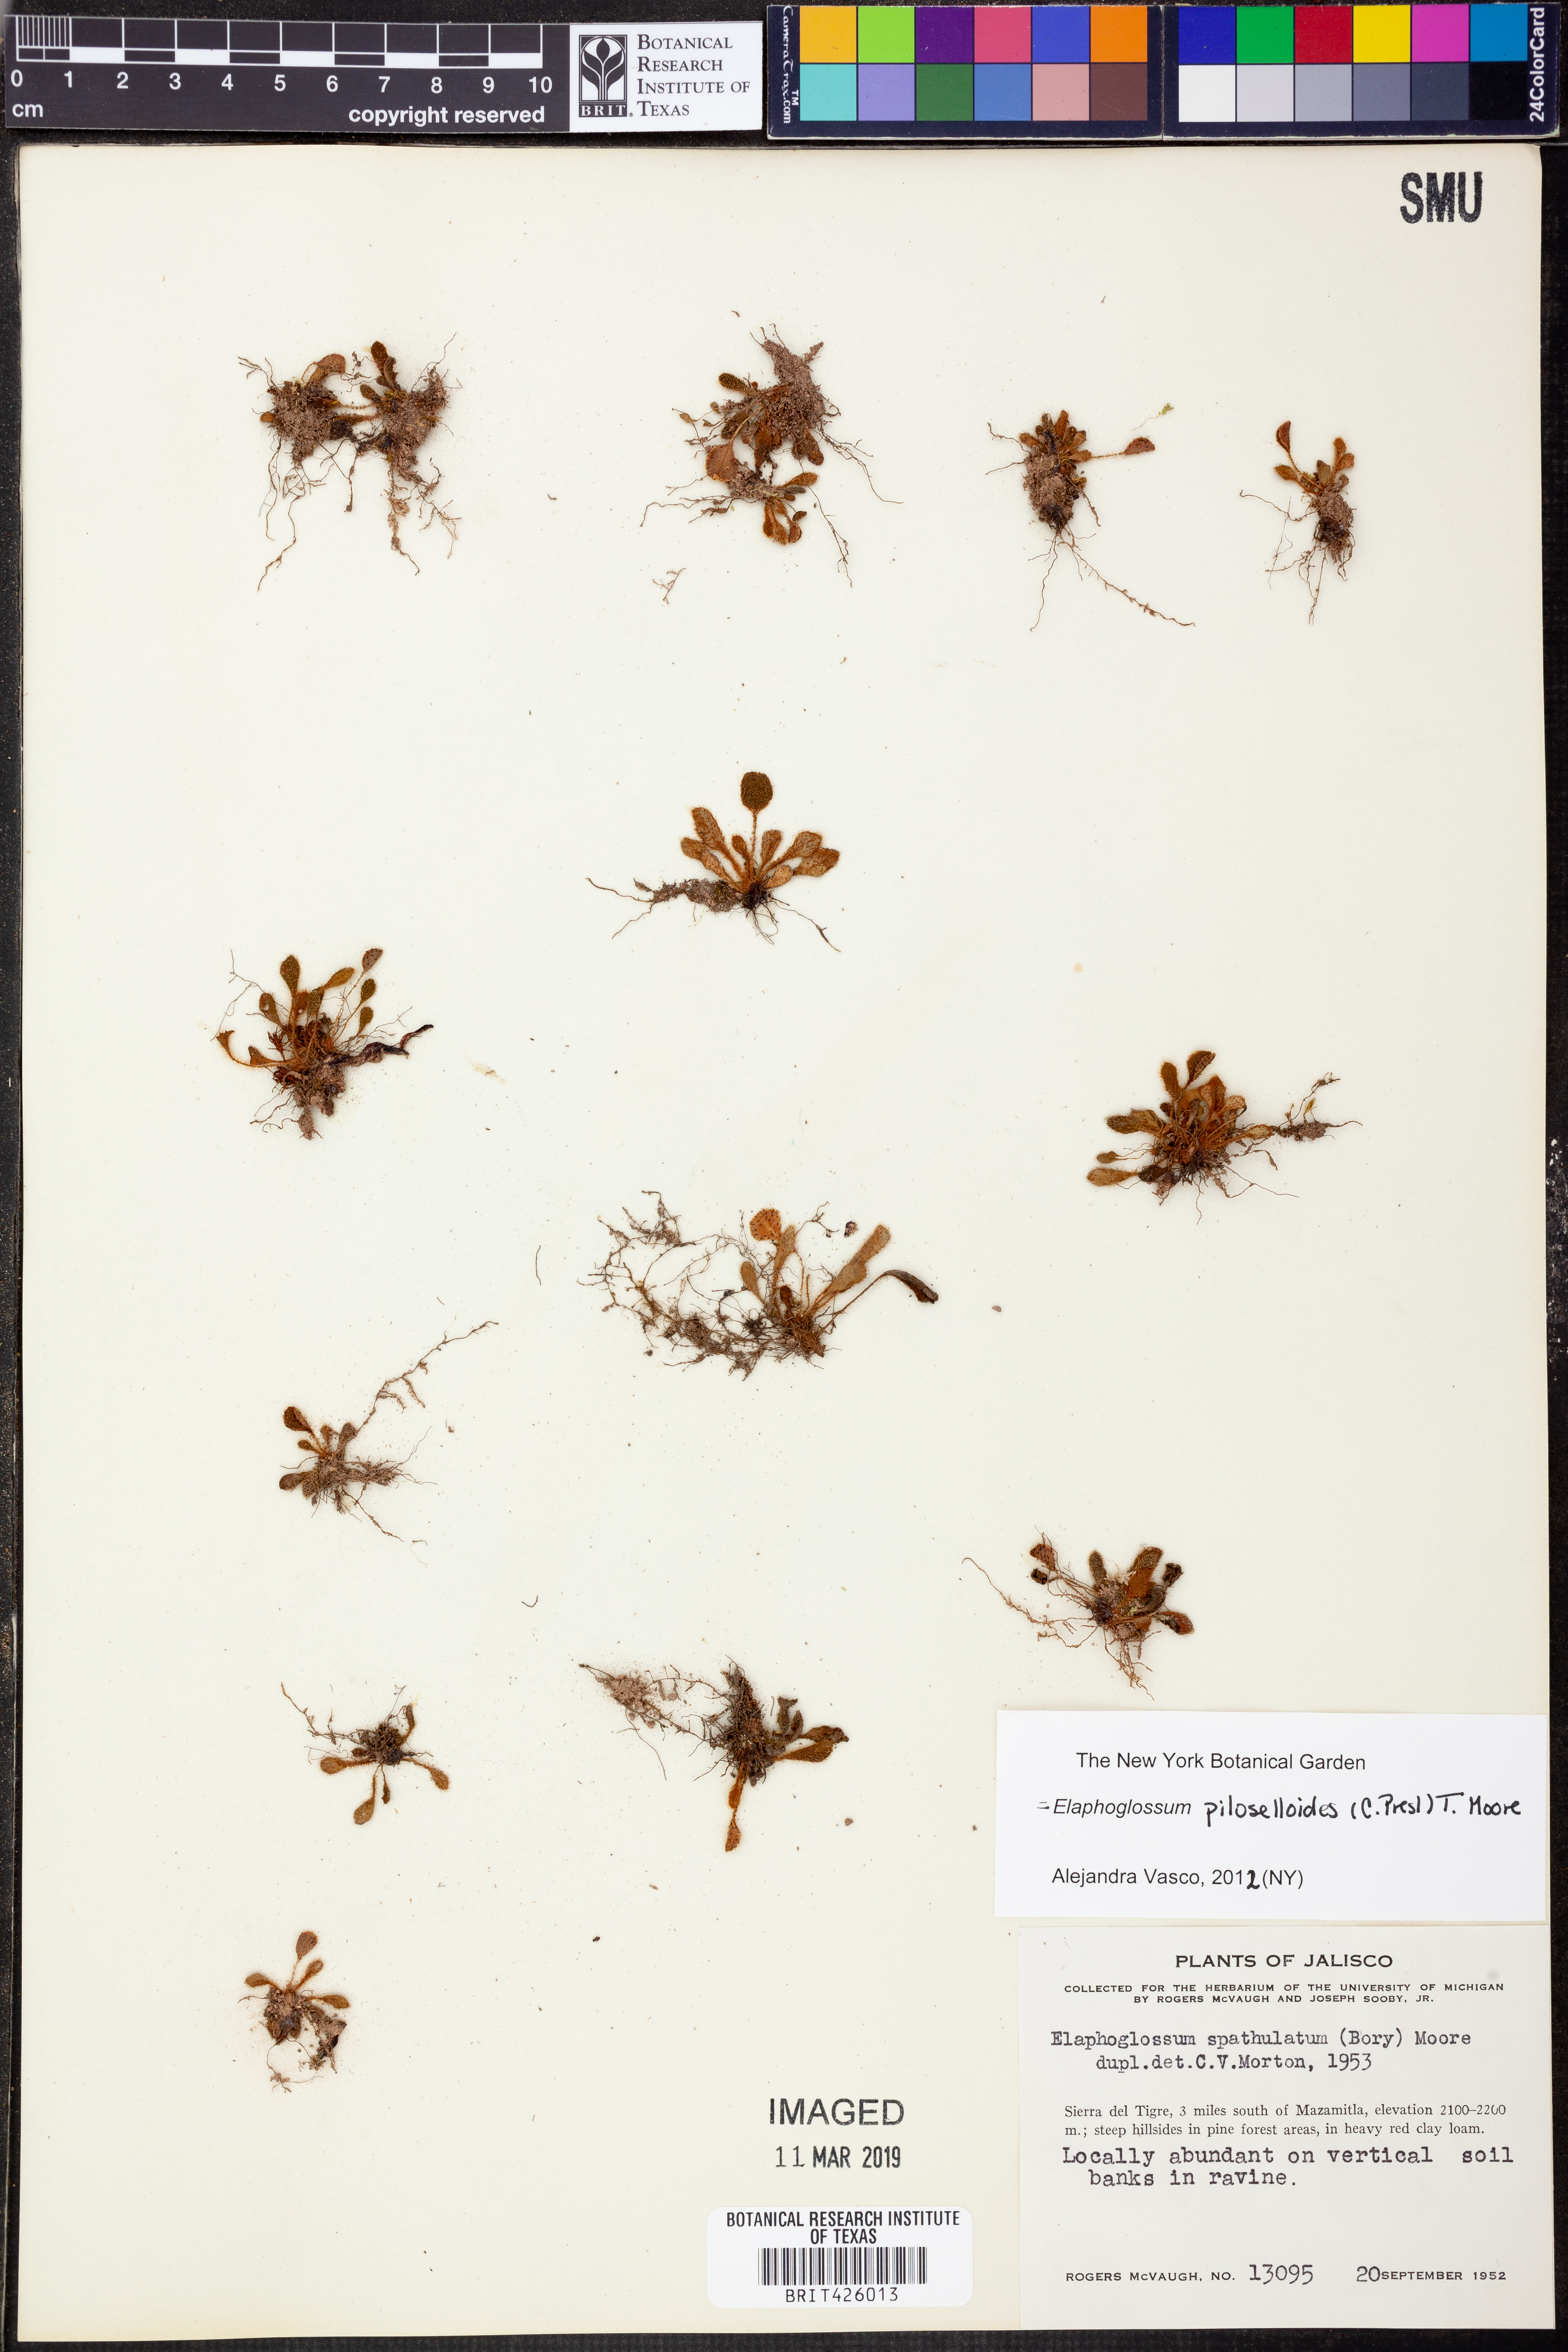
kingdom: Plantae
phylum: Tracheophyta
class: Polypodiopsida
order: Polypodiales
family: Dryopteridaceae
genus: Elaphoglossum
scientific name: Elaphoglossum piloselloides
